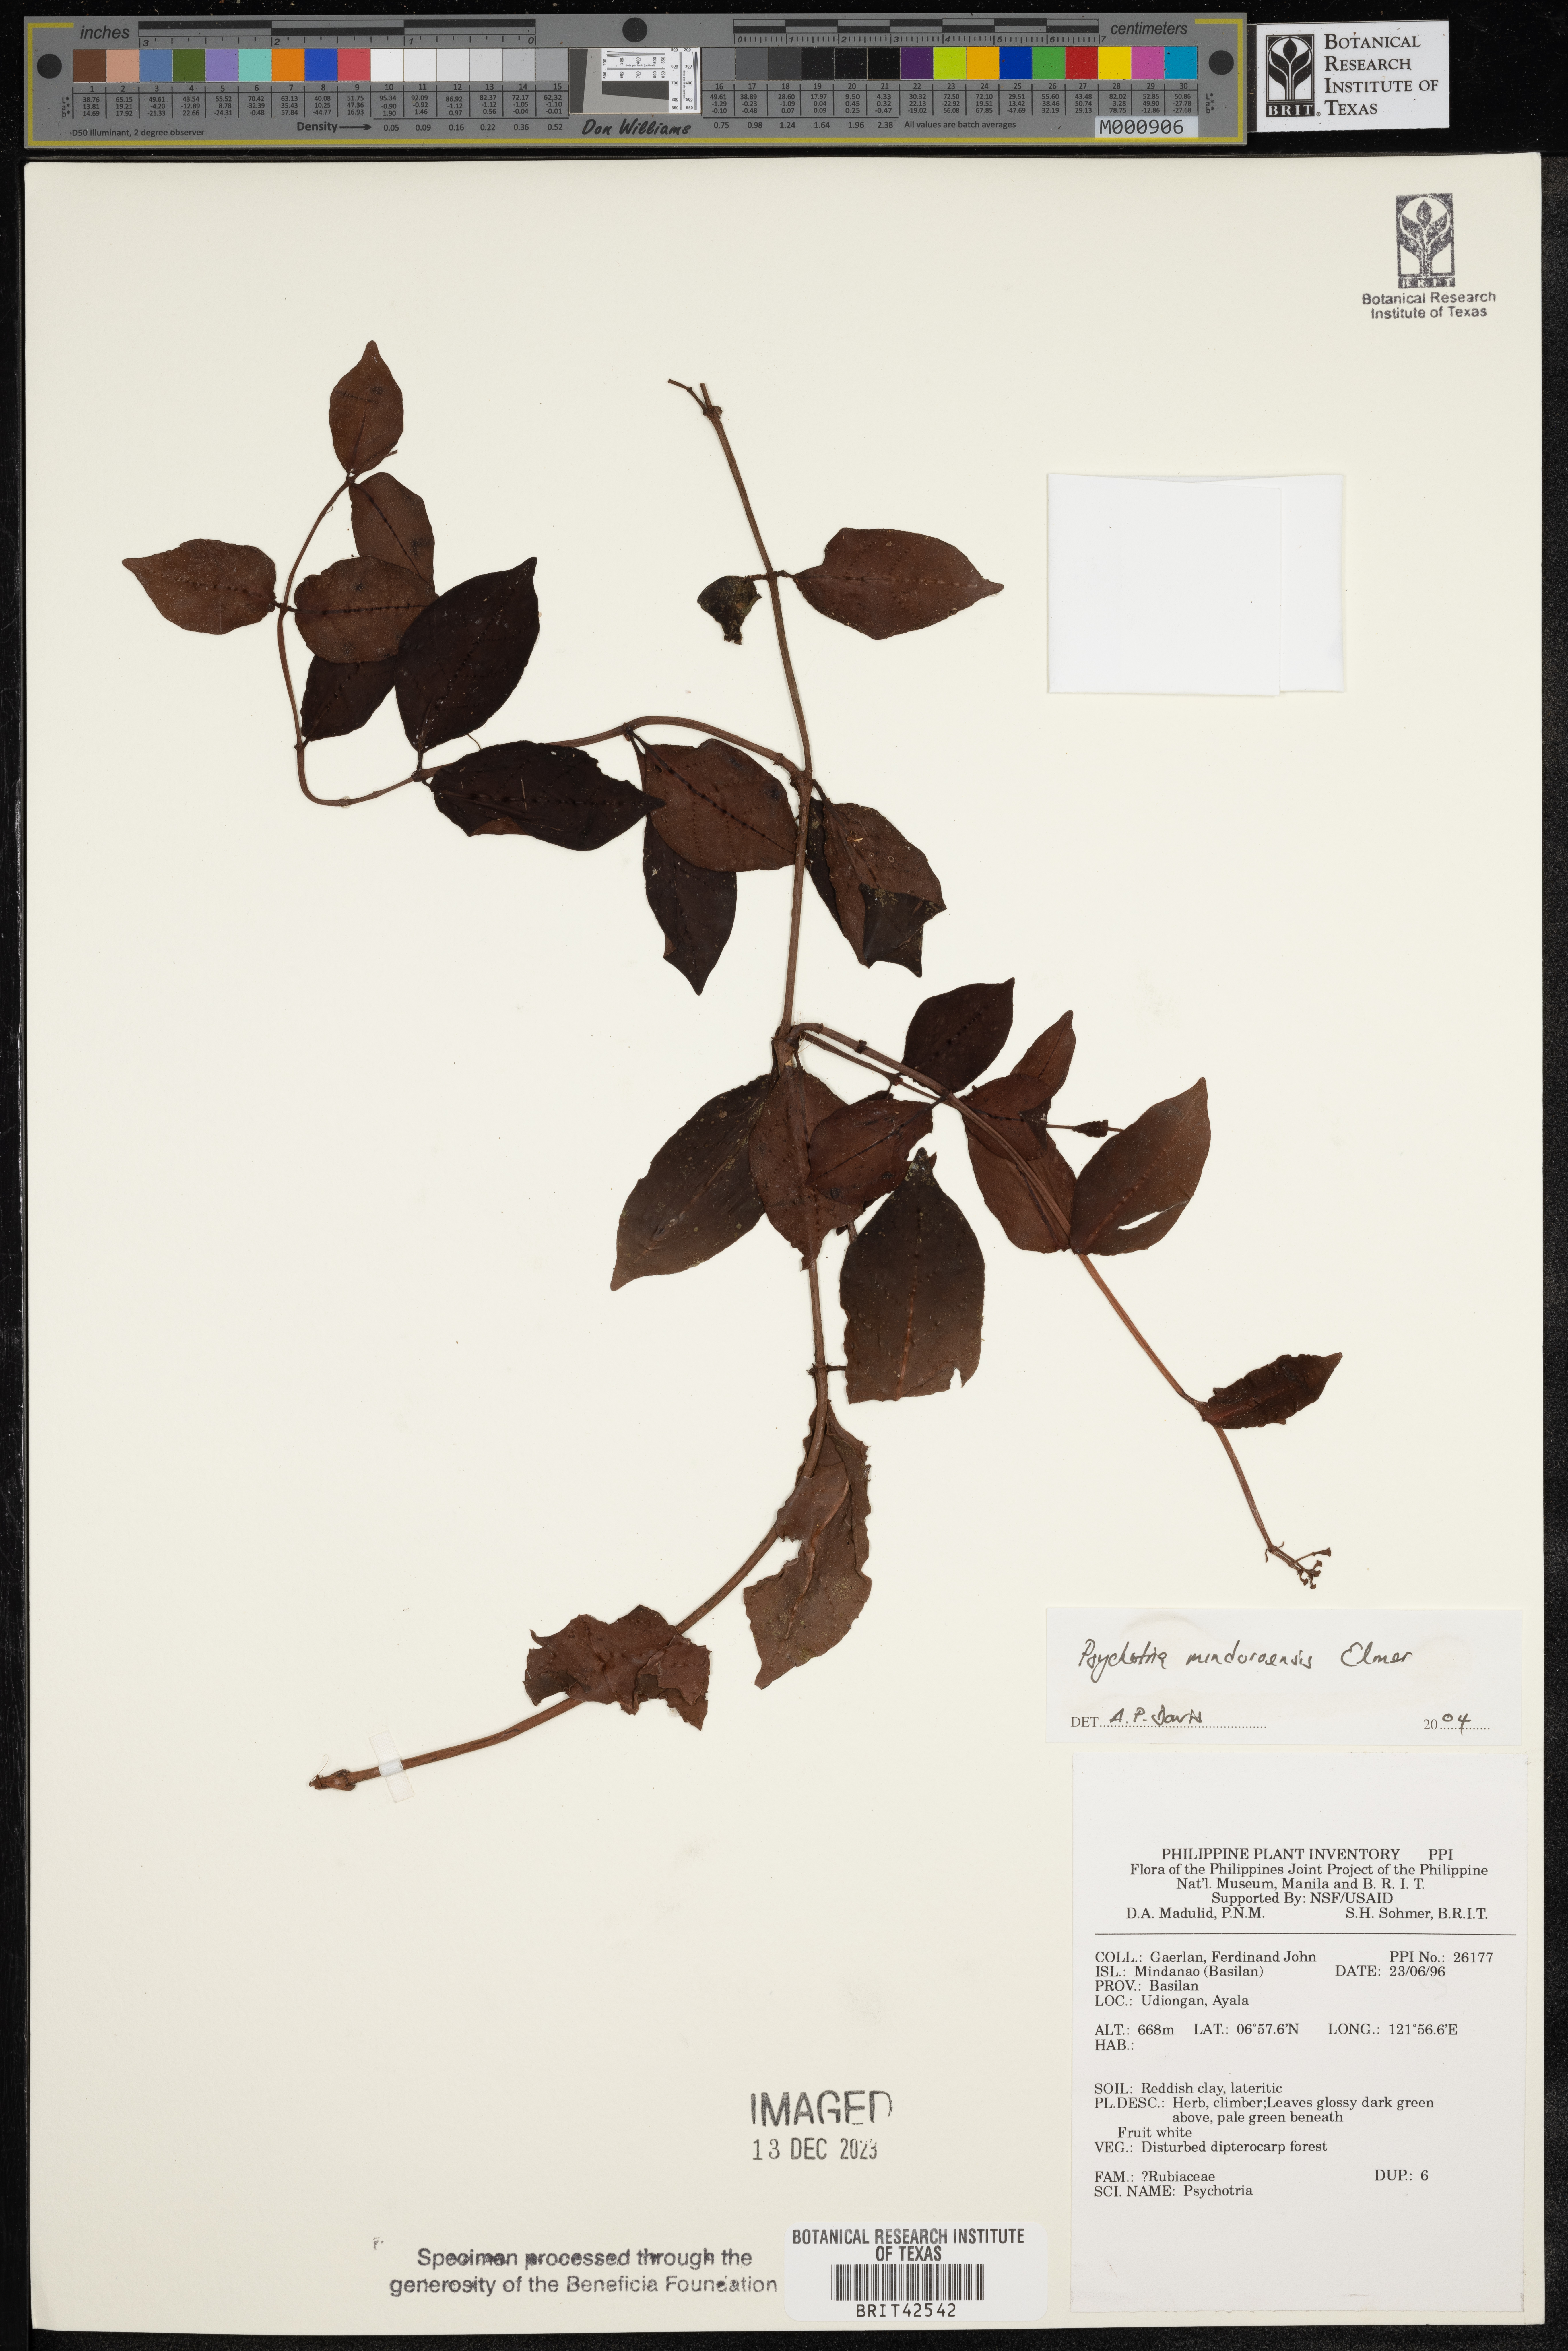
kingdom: Plantae
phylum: Tracheophyta
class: Magnoliopsida
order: Gentianales
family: Rubiaceae
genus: Psychotria
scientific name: Psychotria mindoroensis
